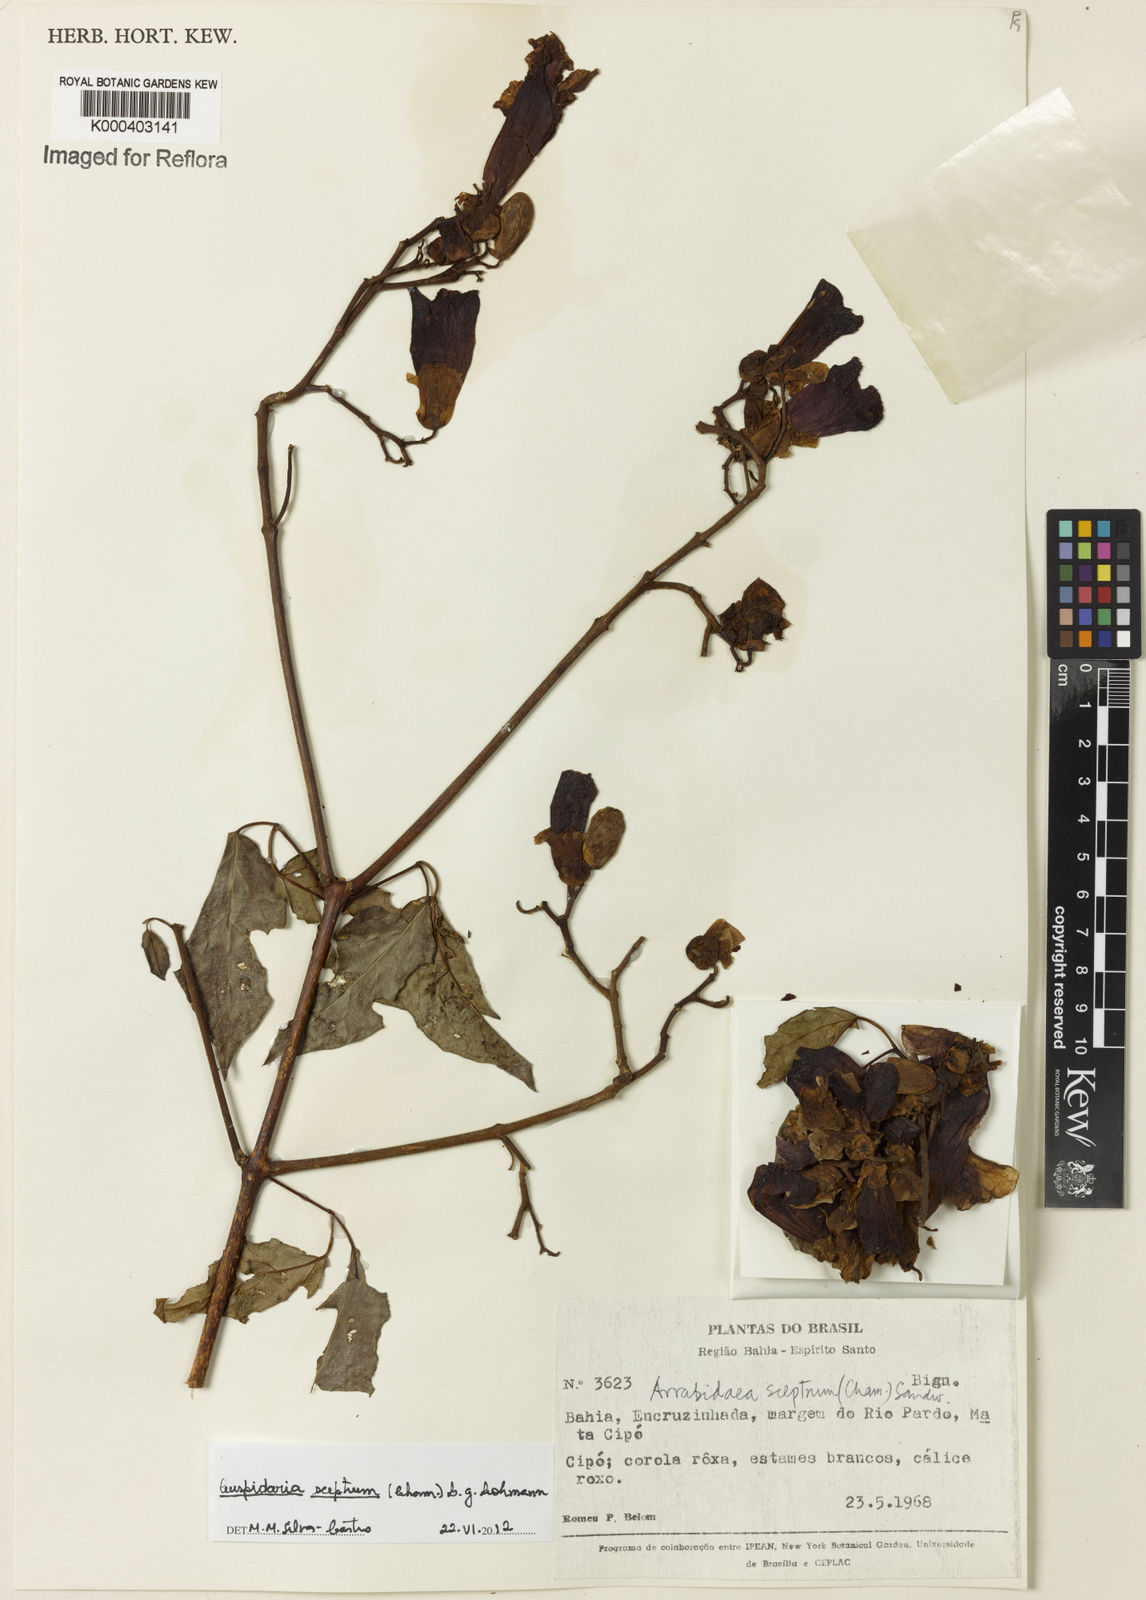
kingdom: Plantae
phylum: Tracheophyta
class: Magnoliopsida
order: Lamiales
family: Bignoniaceae
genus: Cuspidaria
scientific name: Cuspidaria sceptrum
